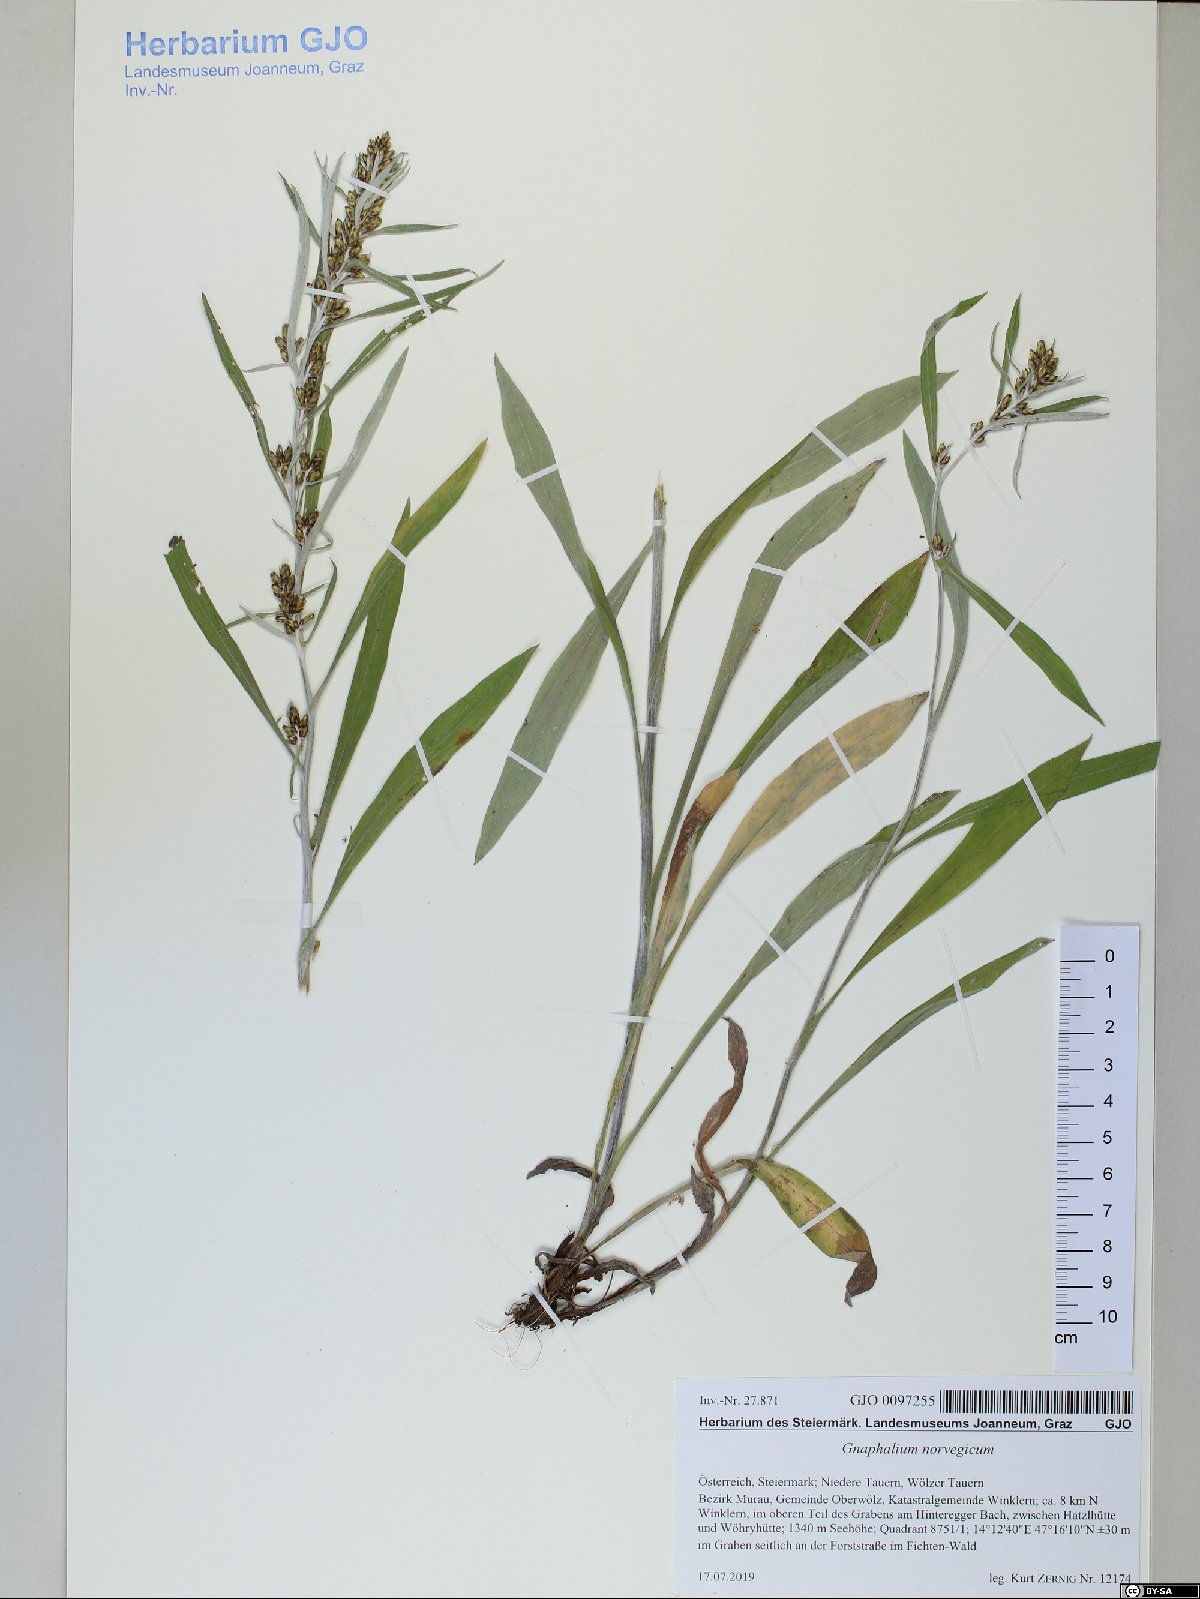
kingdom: Plantae
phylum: Tracheophyta
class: Magnoliopsida
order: Asterales
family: Asteraceae
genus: Omalotheca
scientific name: Omalotheca norvegica
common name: Norwegian arctic-cudweed
